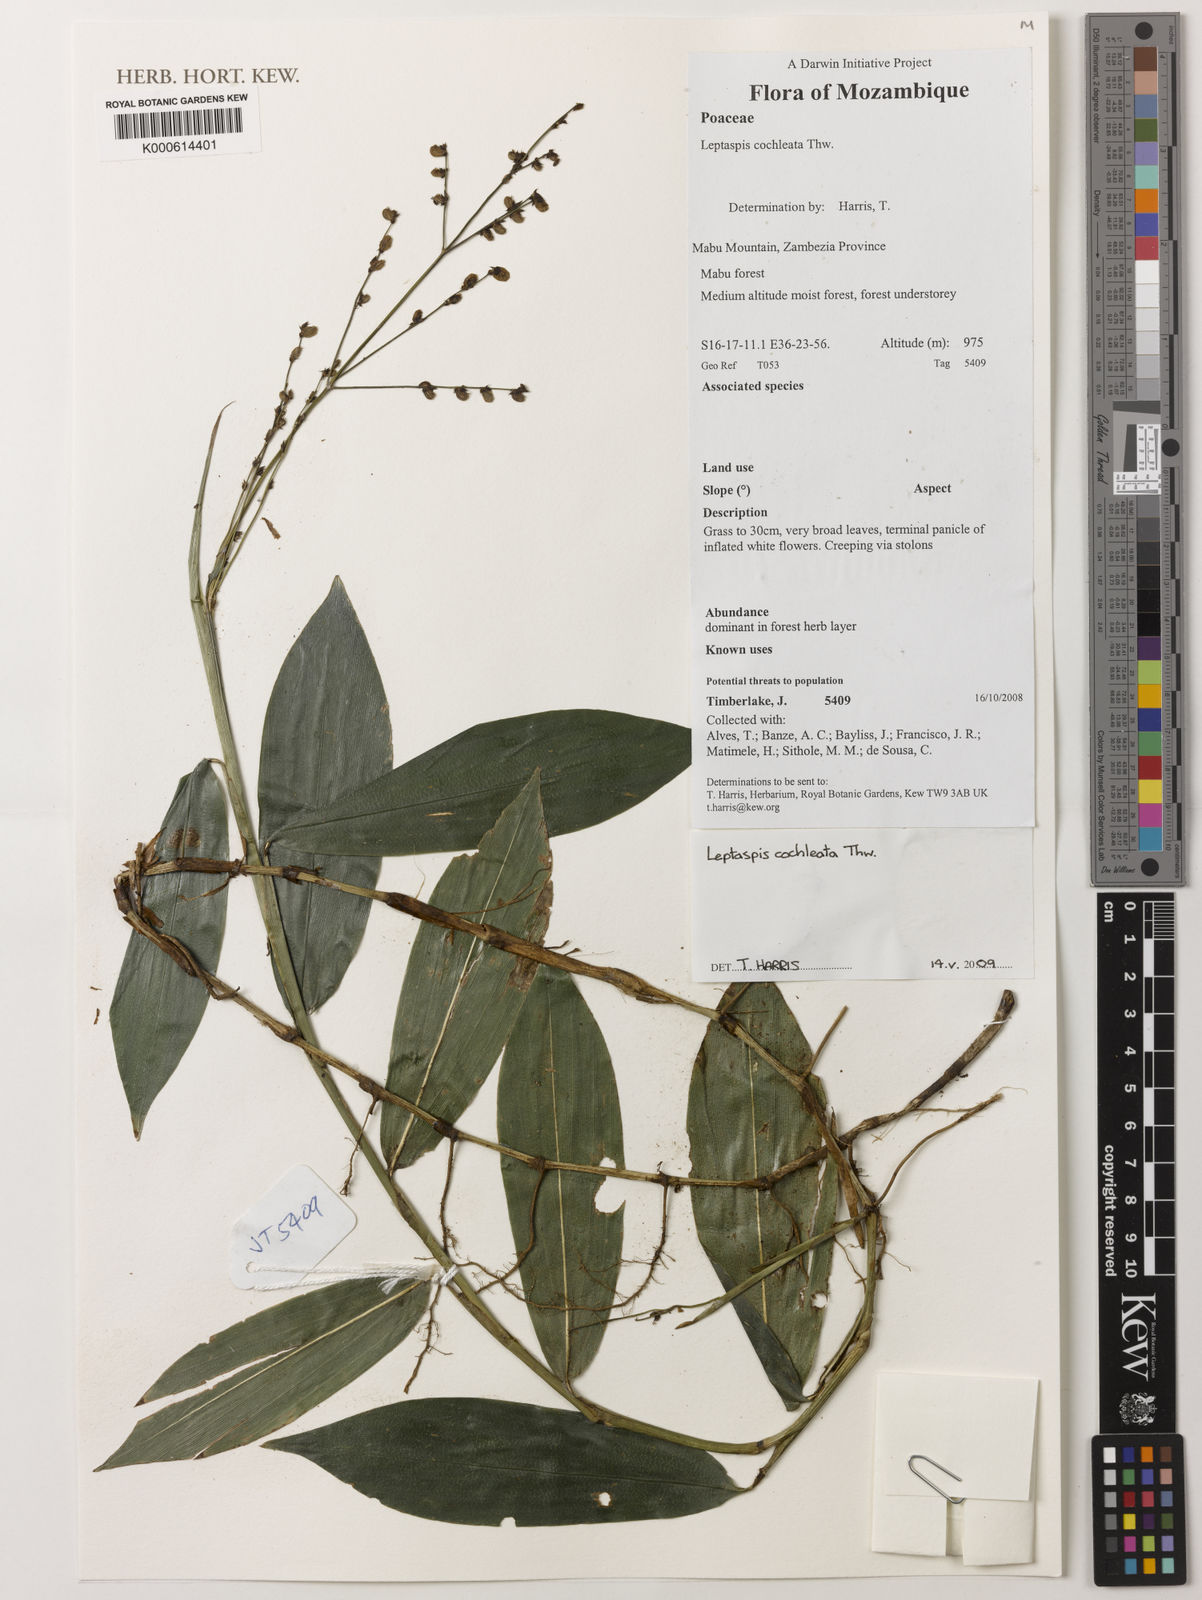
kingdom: Plantae
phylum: Tracheophyta
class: Liliopsida
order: Poales
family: Poaceae
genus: Leptaspis
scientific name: Leptaspis zeylanica
